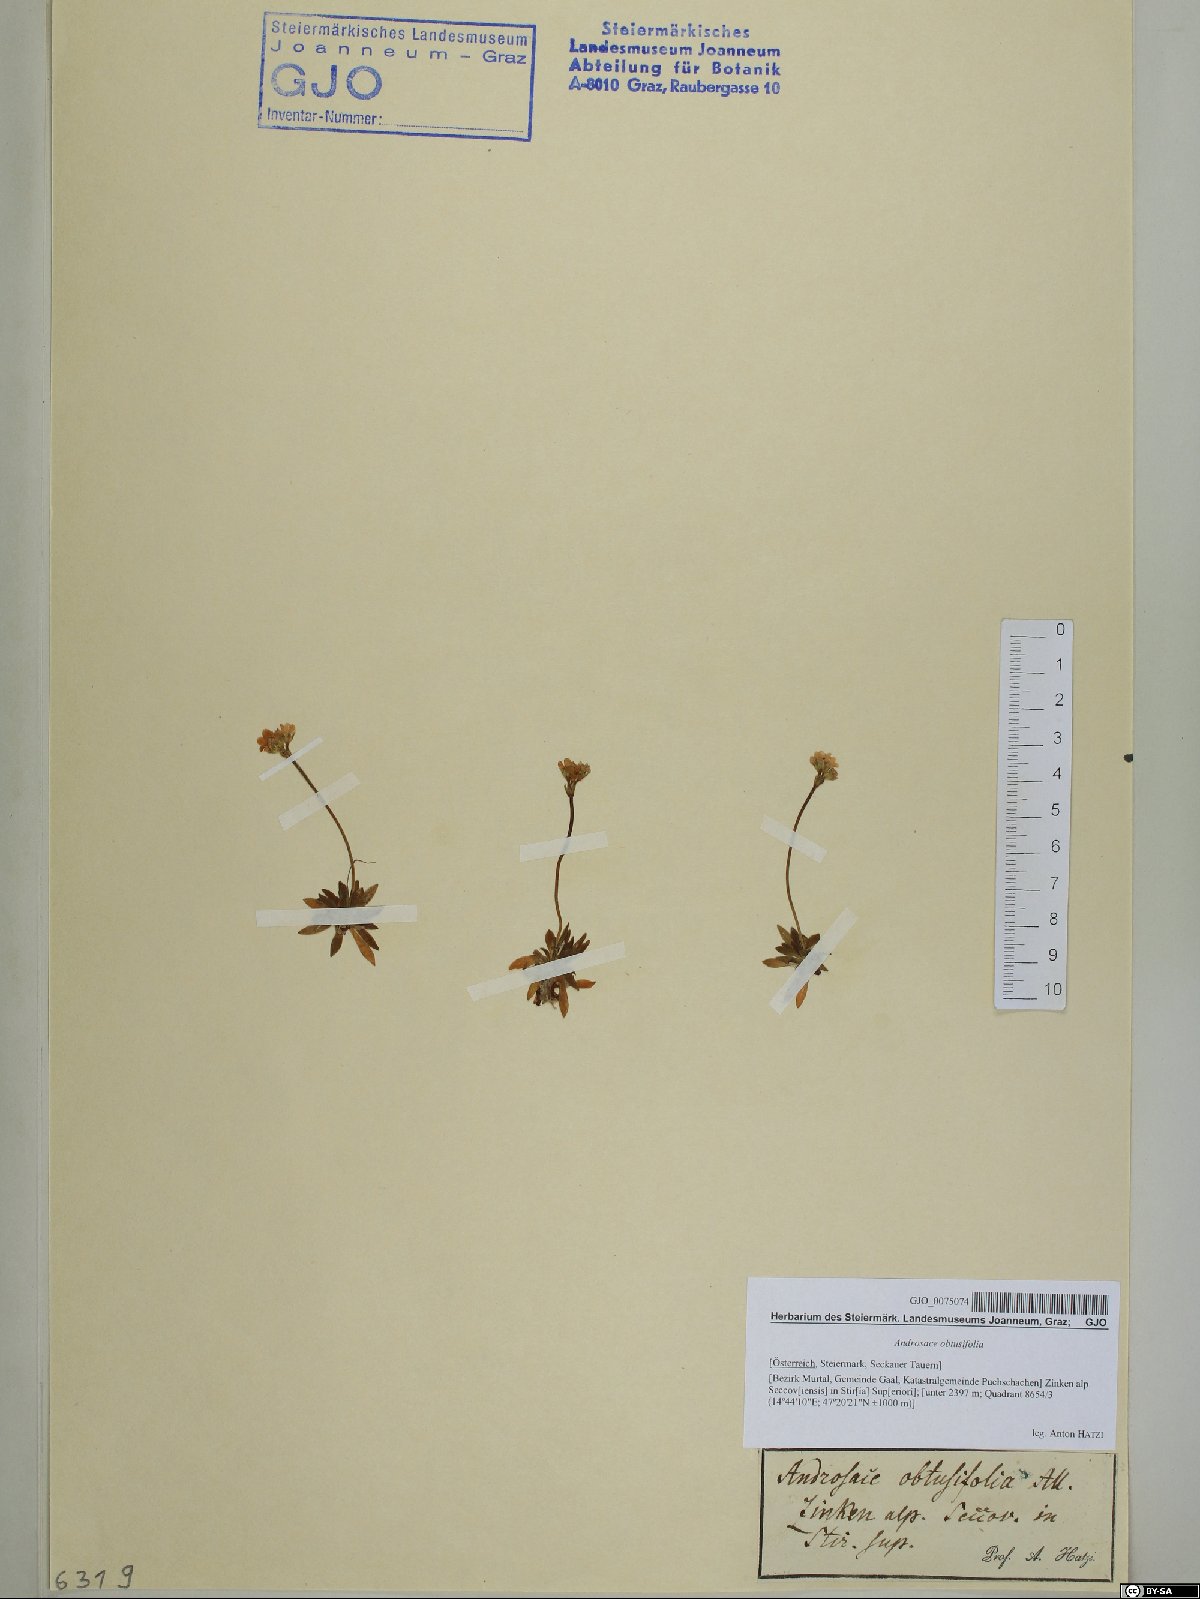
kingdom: Plantae
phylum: Tracheophyta
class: Magnoliopsida
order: Ericales
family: Primulaceae
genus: Androsace
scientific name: Androsace obtusifolia
